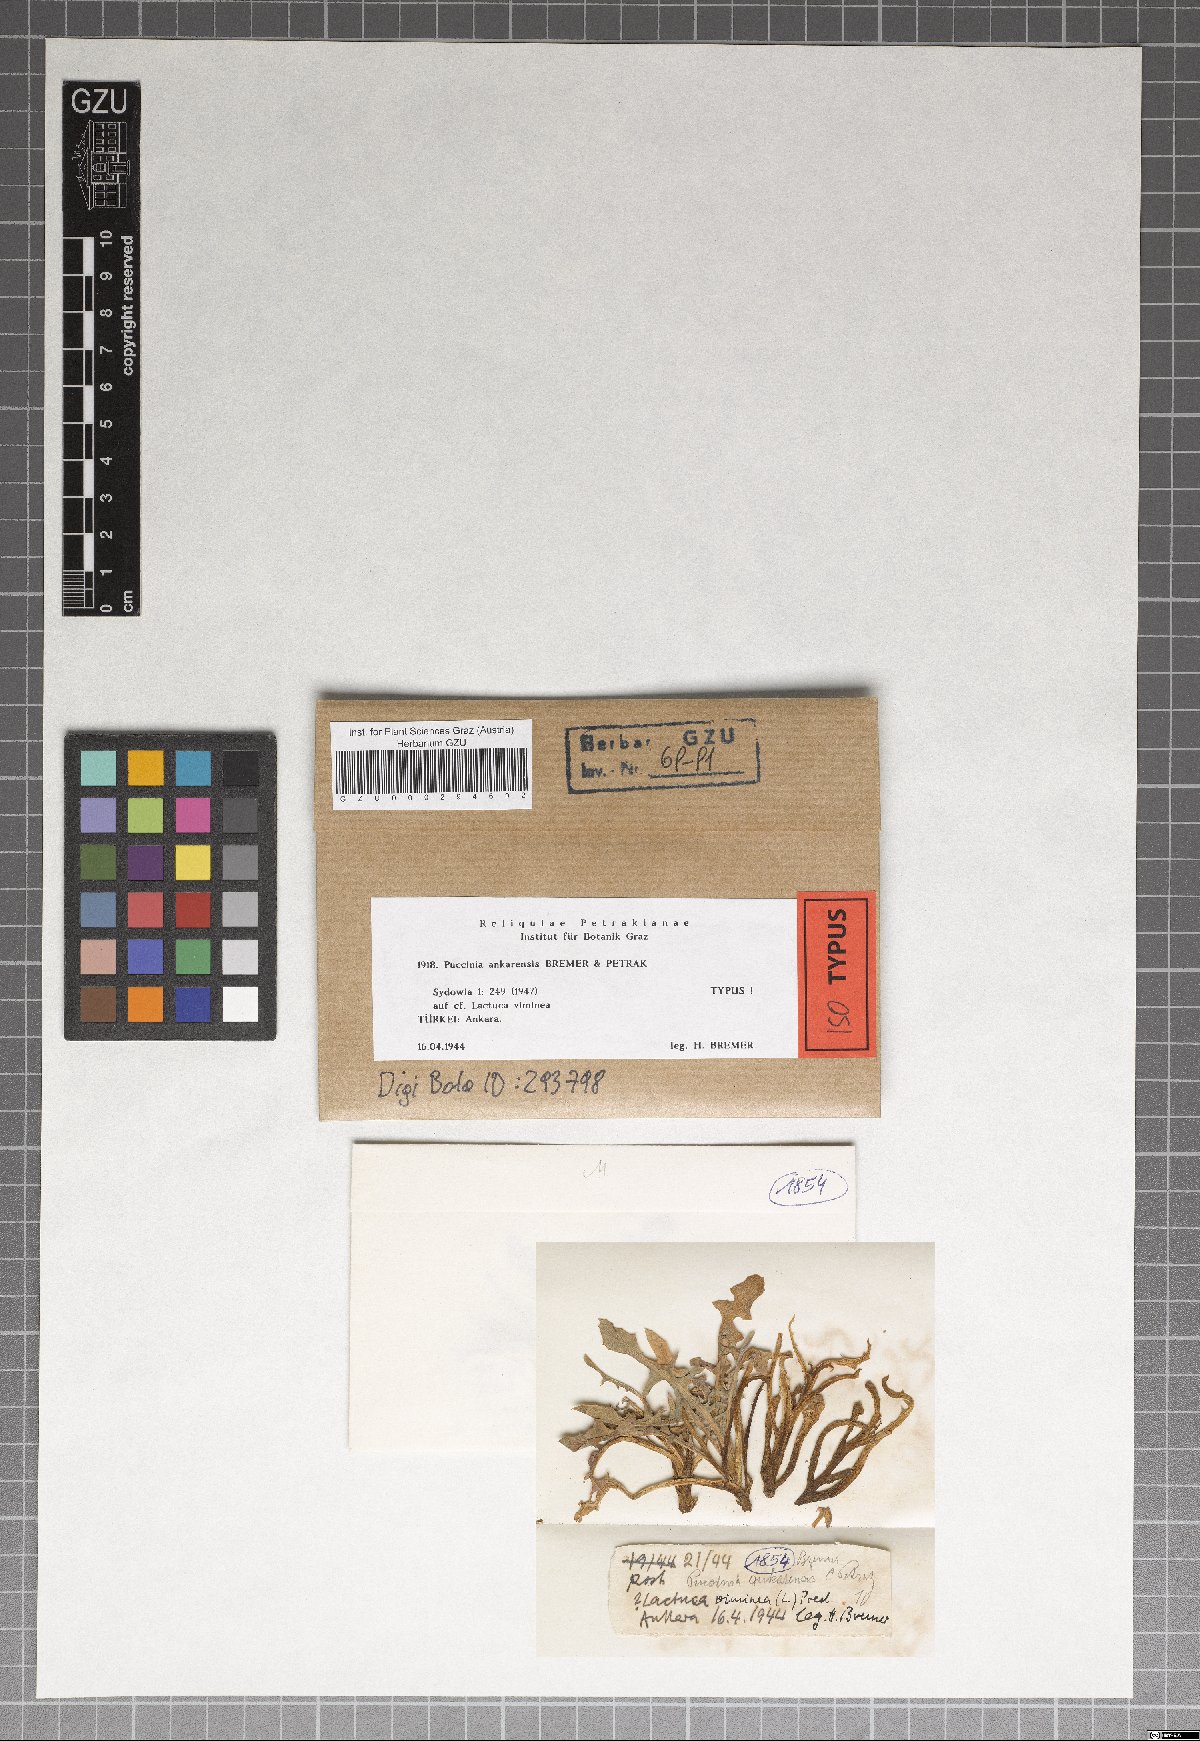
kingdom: Fungi
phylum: Basidiomycota
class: Pucciniomycetes
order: Pucciniales
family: Pucciniaceae
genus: Puccinia
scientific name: Puccinia ankarensis
